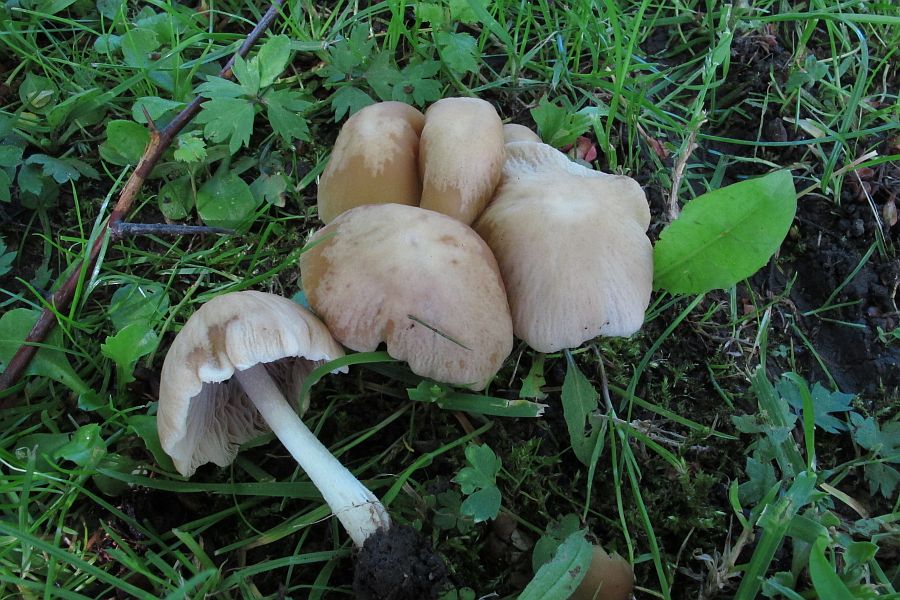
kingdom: Fungi
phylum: Basidiomycota
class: Agaricomycetes
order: Agaricales
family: Psathyrellaceae
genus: Candolleomyces
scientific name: Candolleomyces candolleanus
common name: Candolles mørkhat
